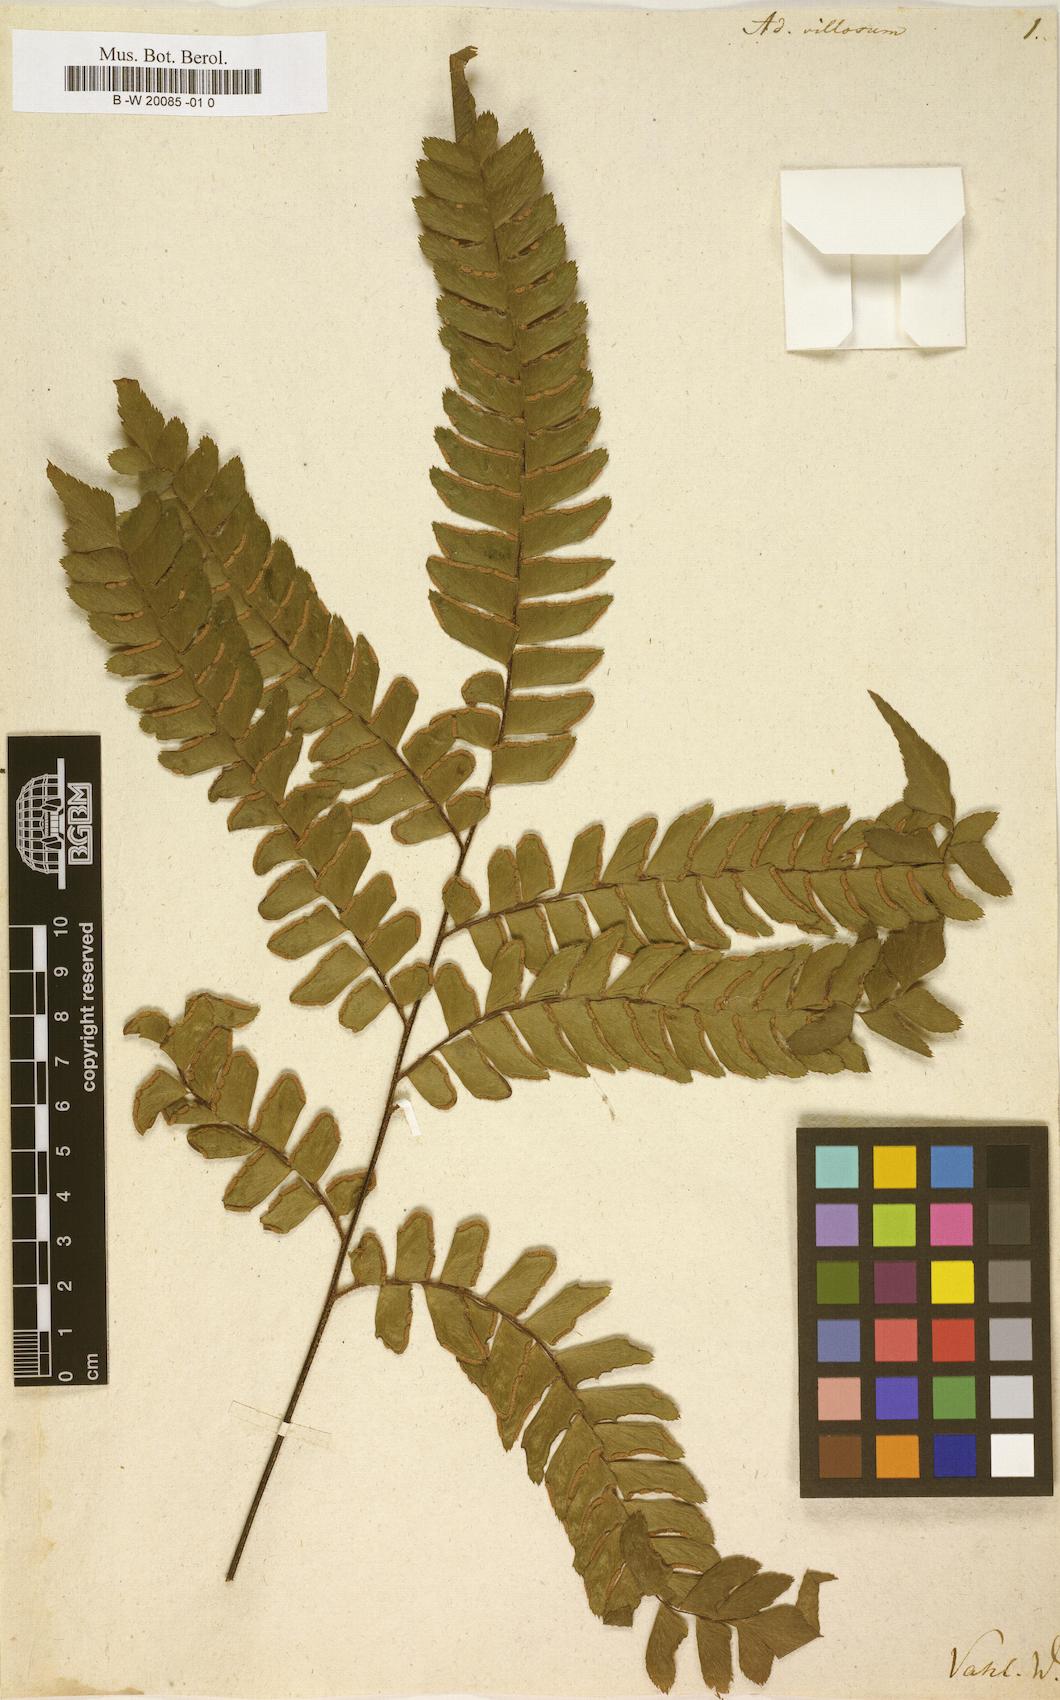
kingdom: Plantae
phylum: Tracheophyta
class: Polypodiopsida
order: Polypodiales
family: Pteridaceae
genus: Adiantum
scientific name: Adiantum villosum
